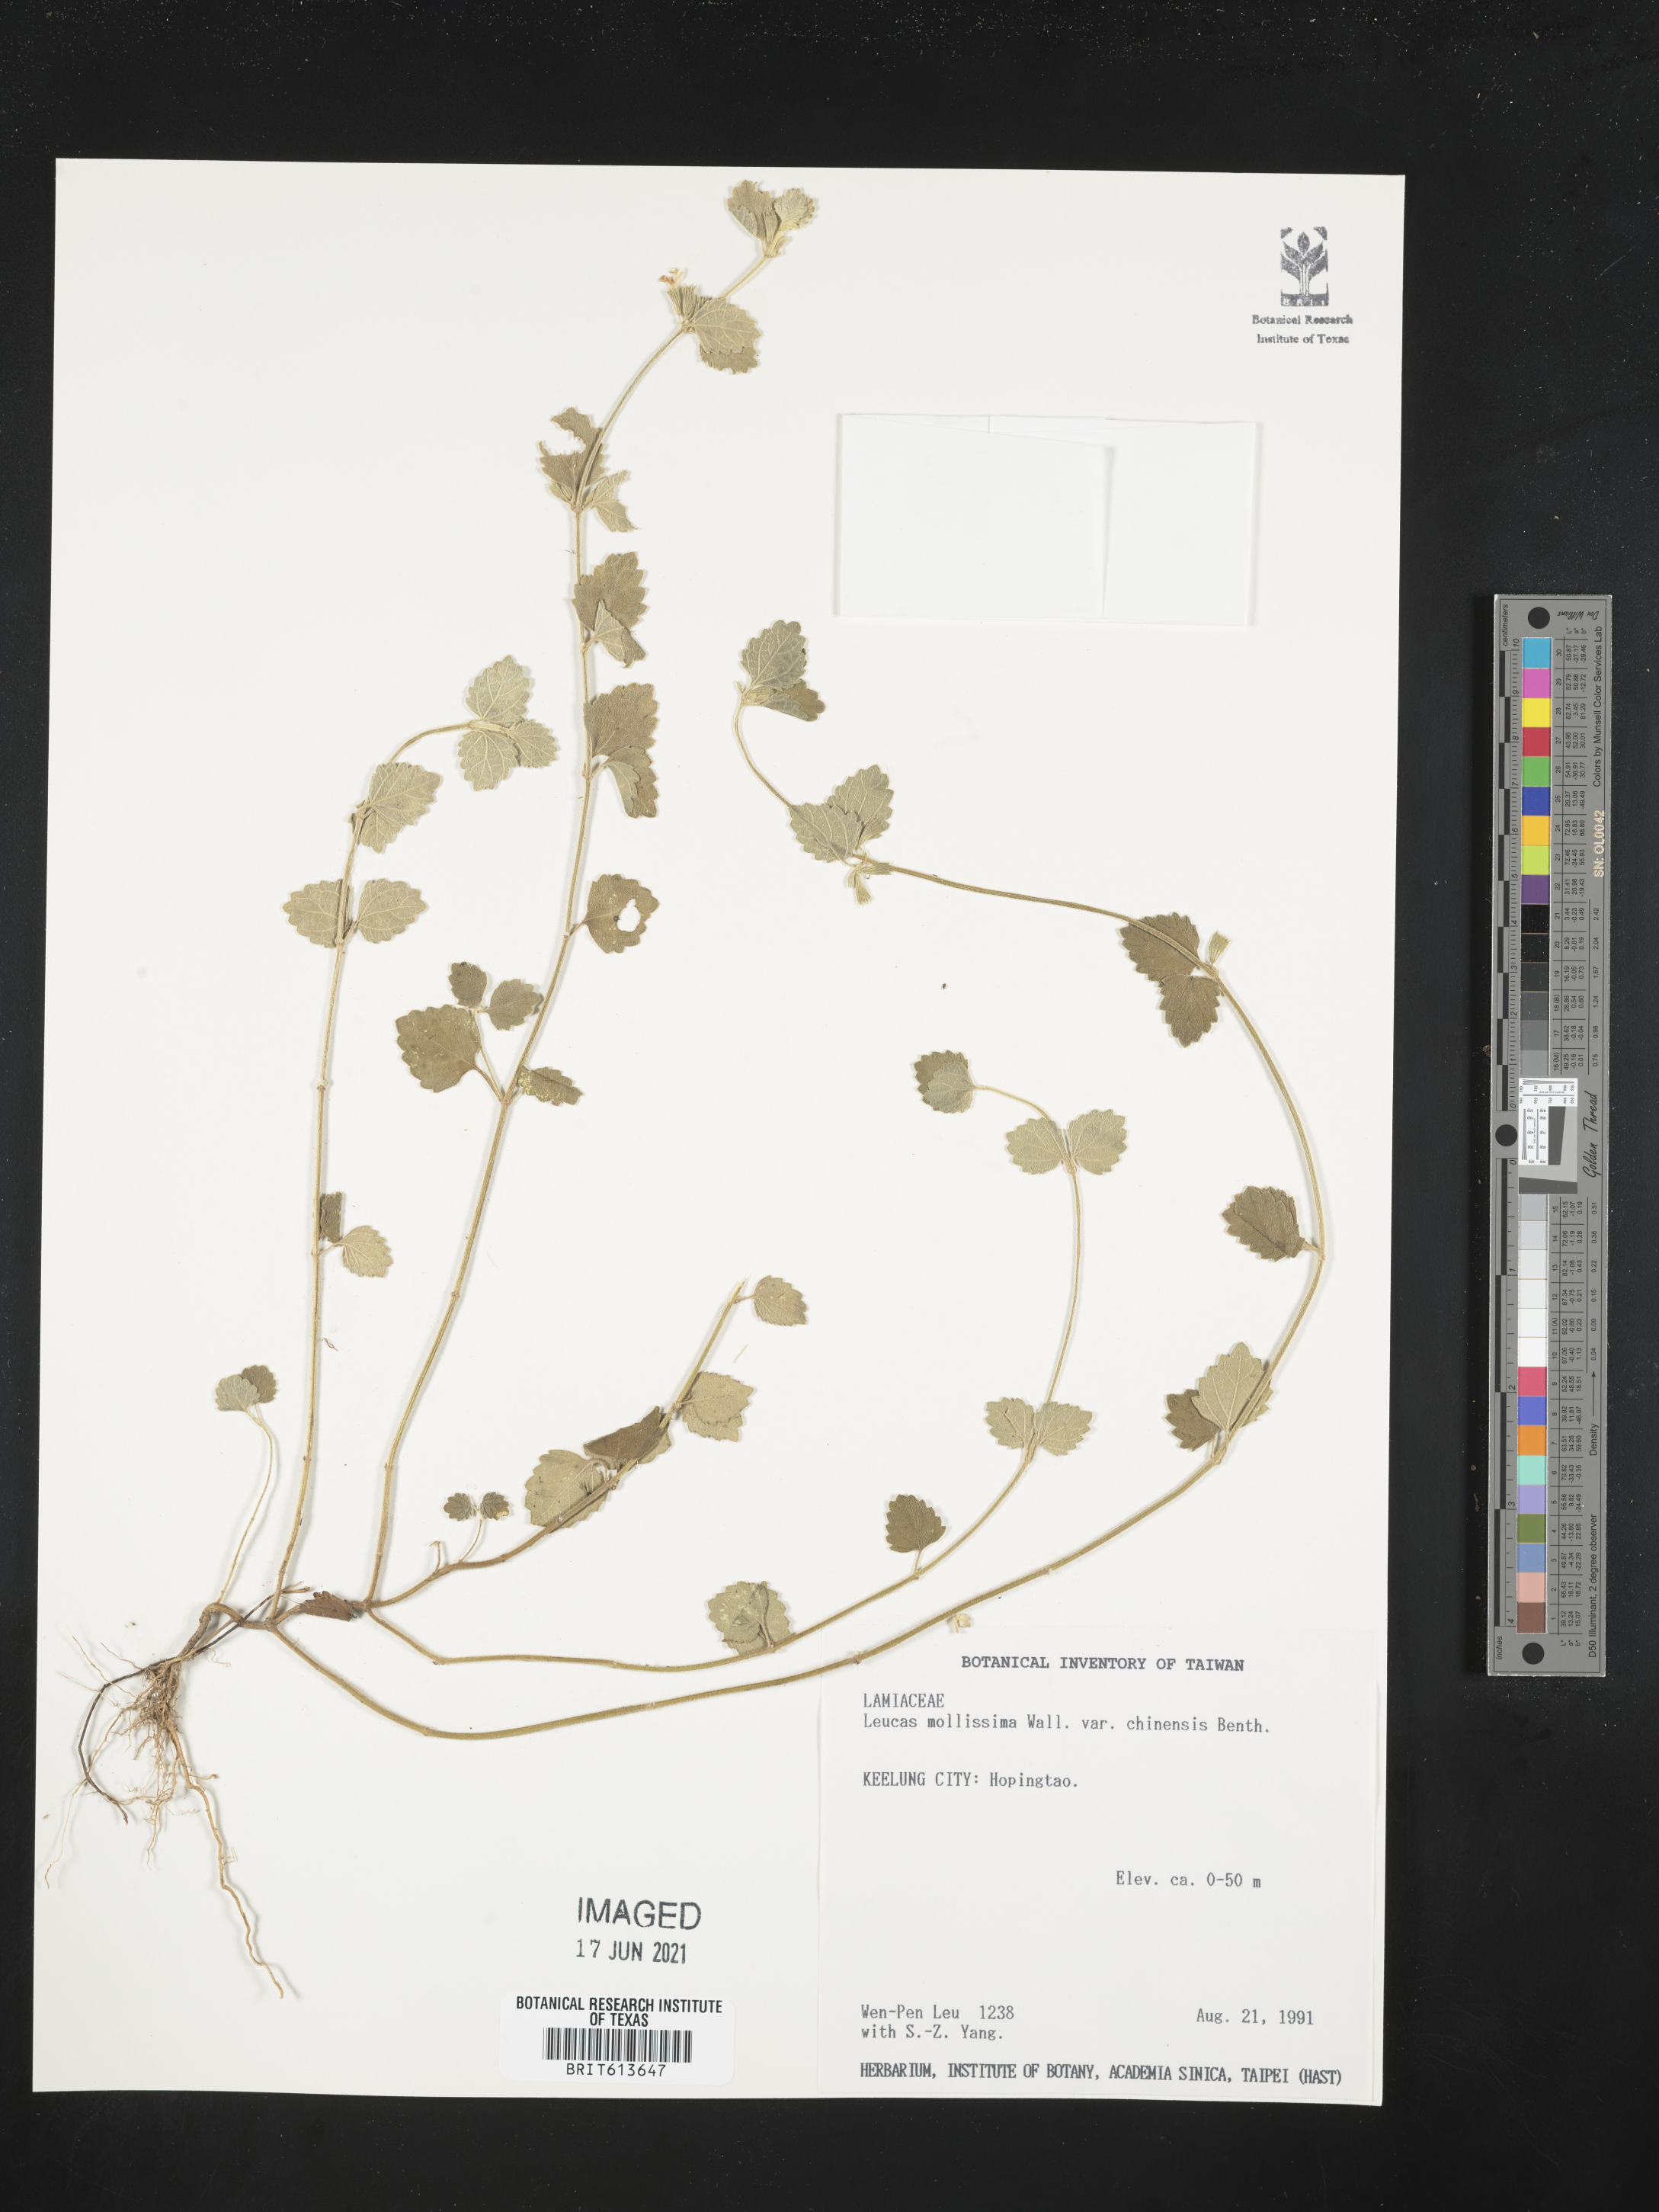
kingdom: Plantae
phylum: Tracheophyta
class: Magnoliopsida
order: Lamiales
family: Lamiaceae
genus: Leucas
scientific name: Leucas chinensis
